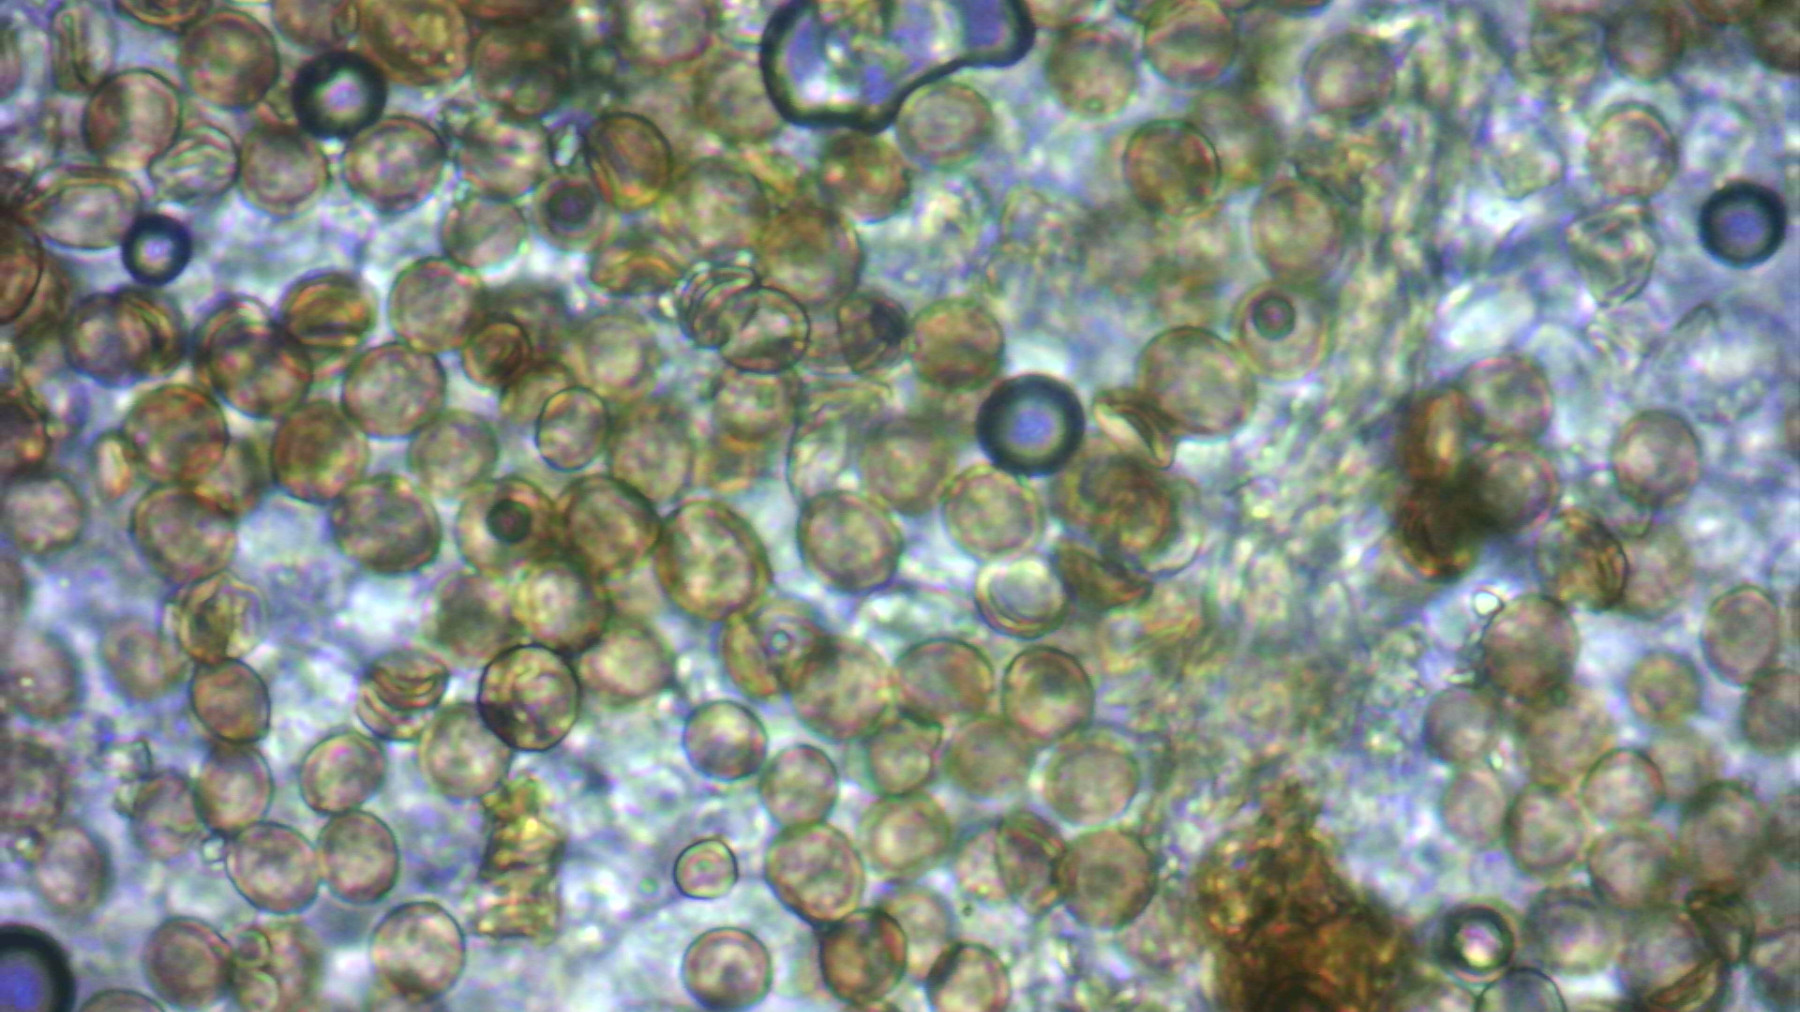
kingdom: Fungi
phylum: Basidiomycota
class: Agaricomycetes
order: Agaricales
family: Chromocyphellaceae
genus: Chromocyphella
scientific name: Chromocyphella muscicola
